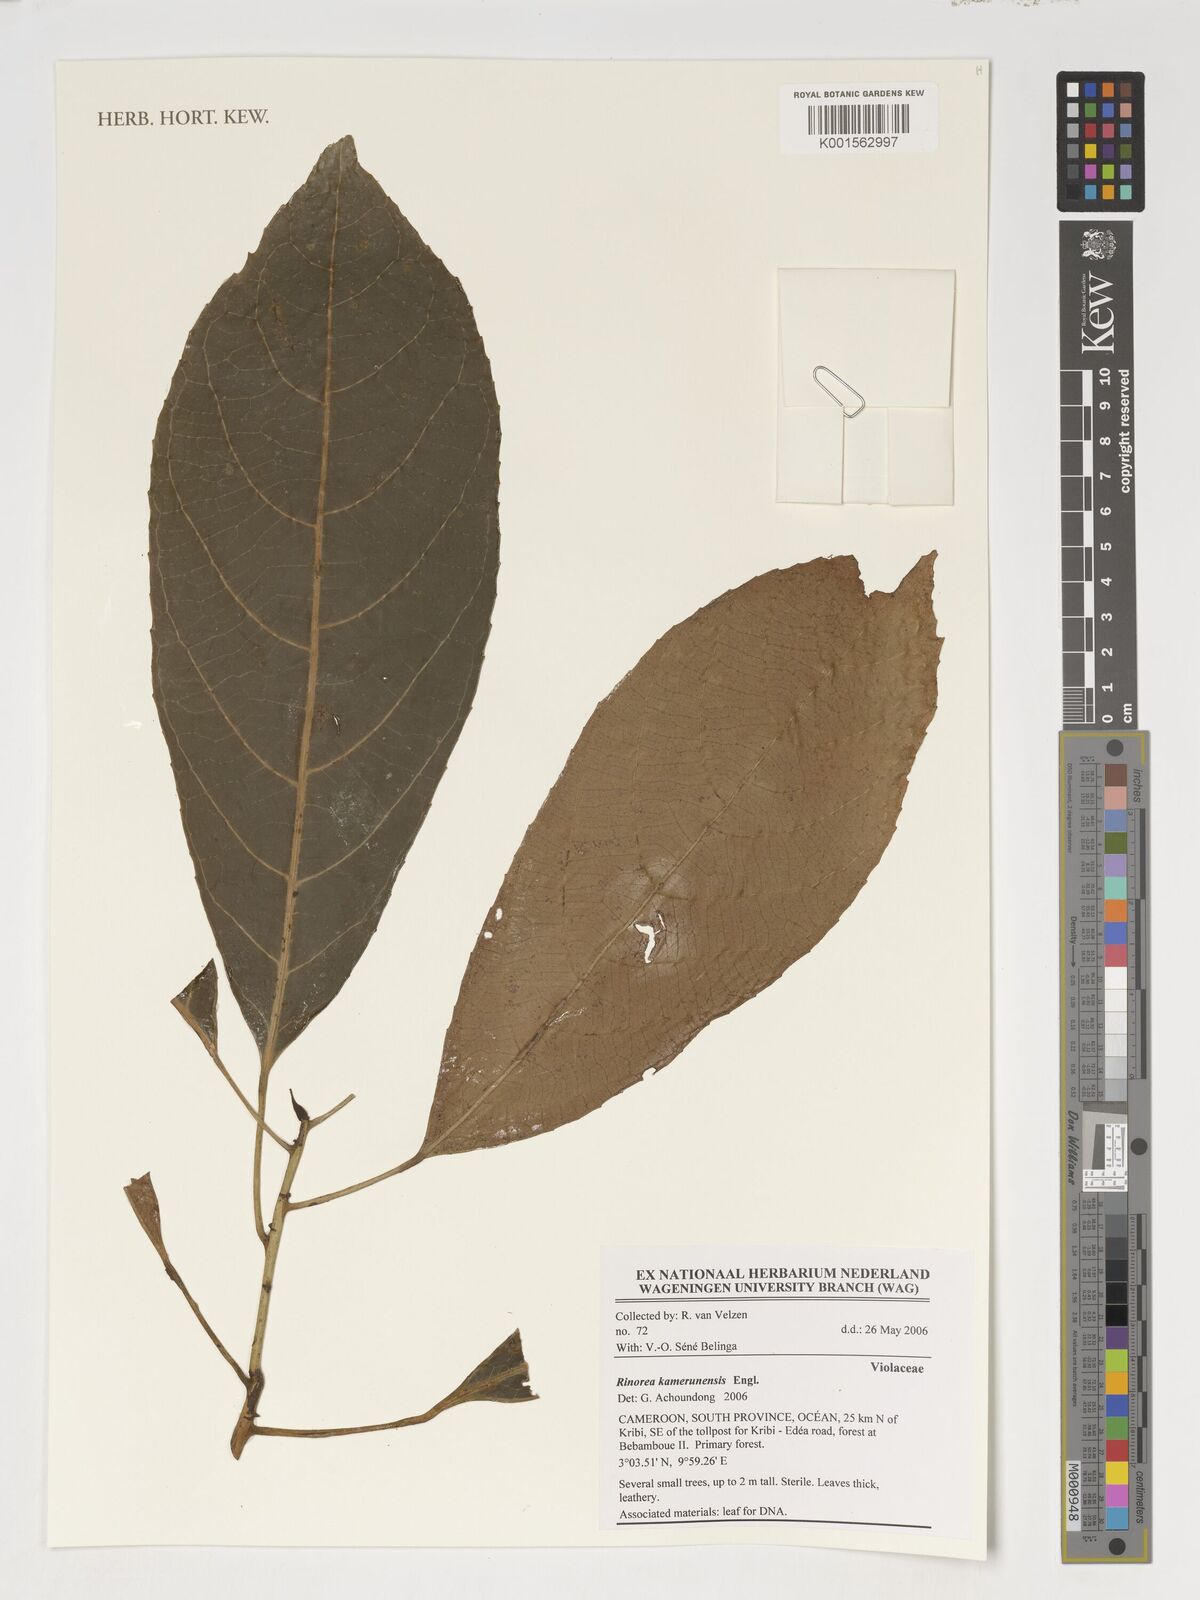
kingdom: Plantae
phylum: Tracheophyta
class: Magnoliopsida
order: Malpighiales
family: Violaceae
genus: Rinorea
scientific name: Rinorea kamerunensis
